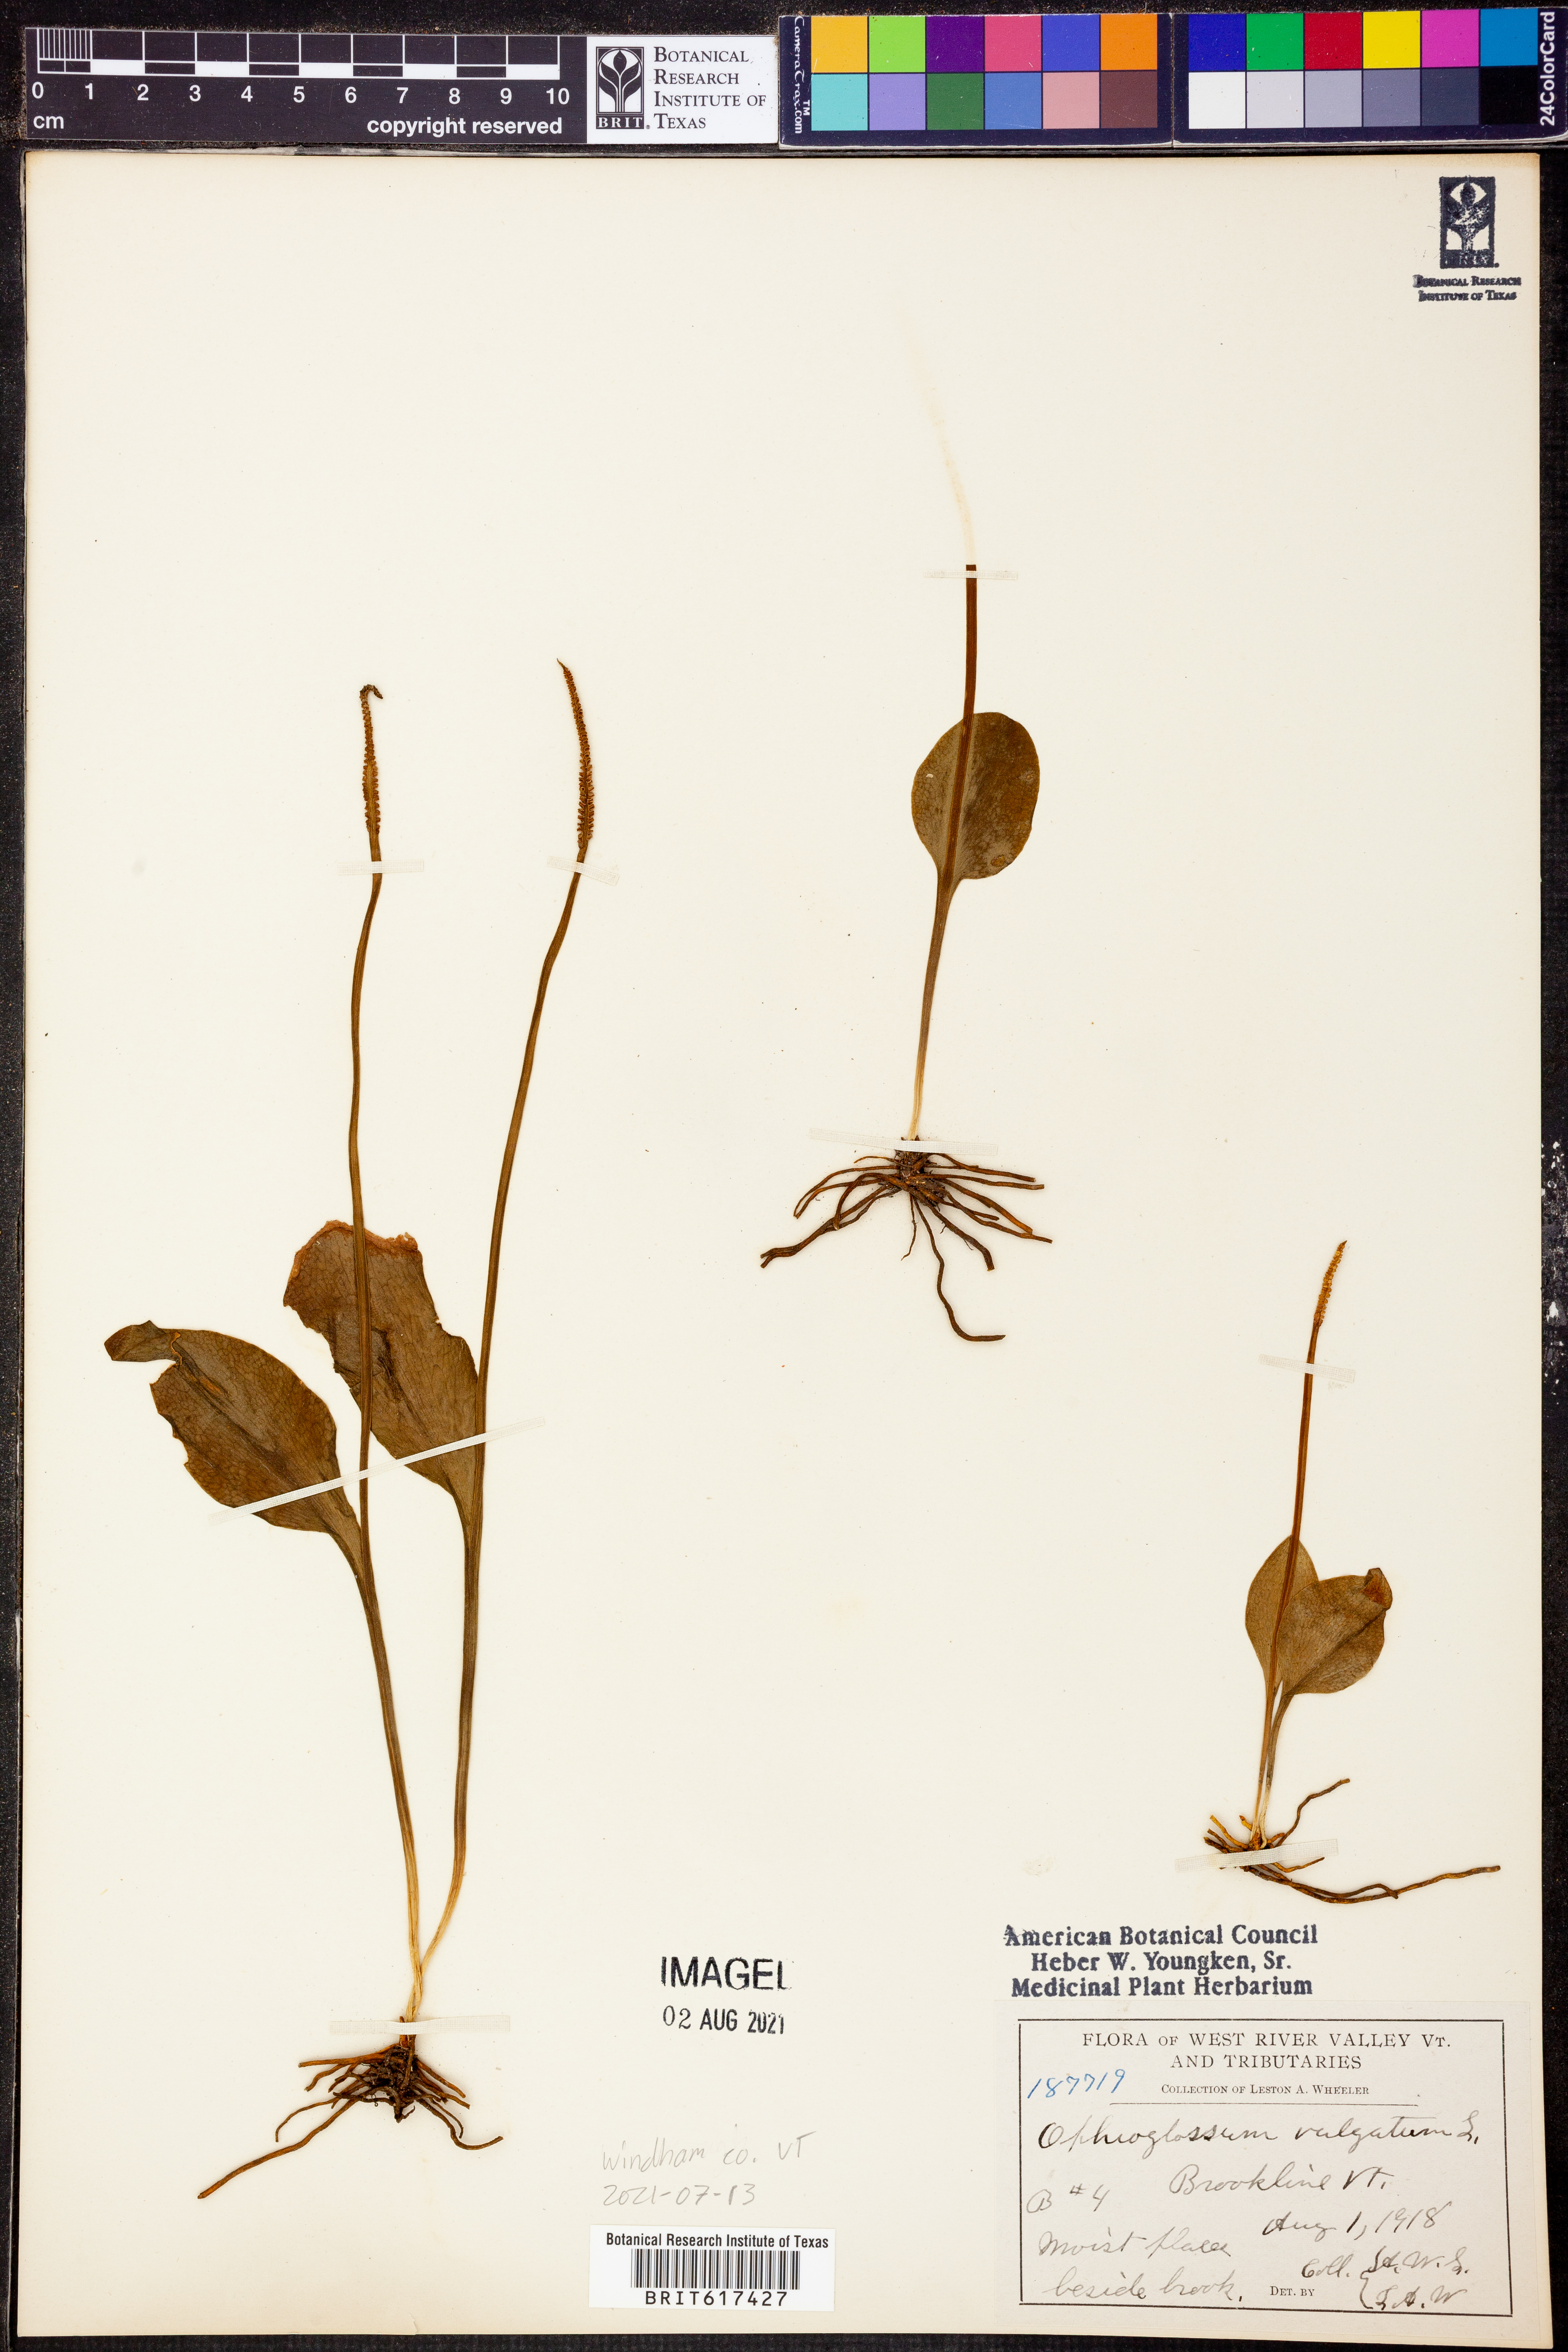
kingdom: Plantae
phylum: Tracheophyta
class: Polypodiopsida
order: Ophioglossales
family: Ophioglossaceae
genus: Ophioglossum
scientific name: Ophioglossum vulgatum
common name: Adder's-tongue
